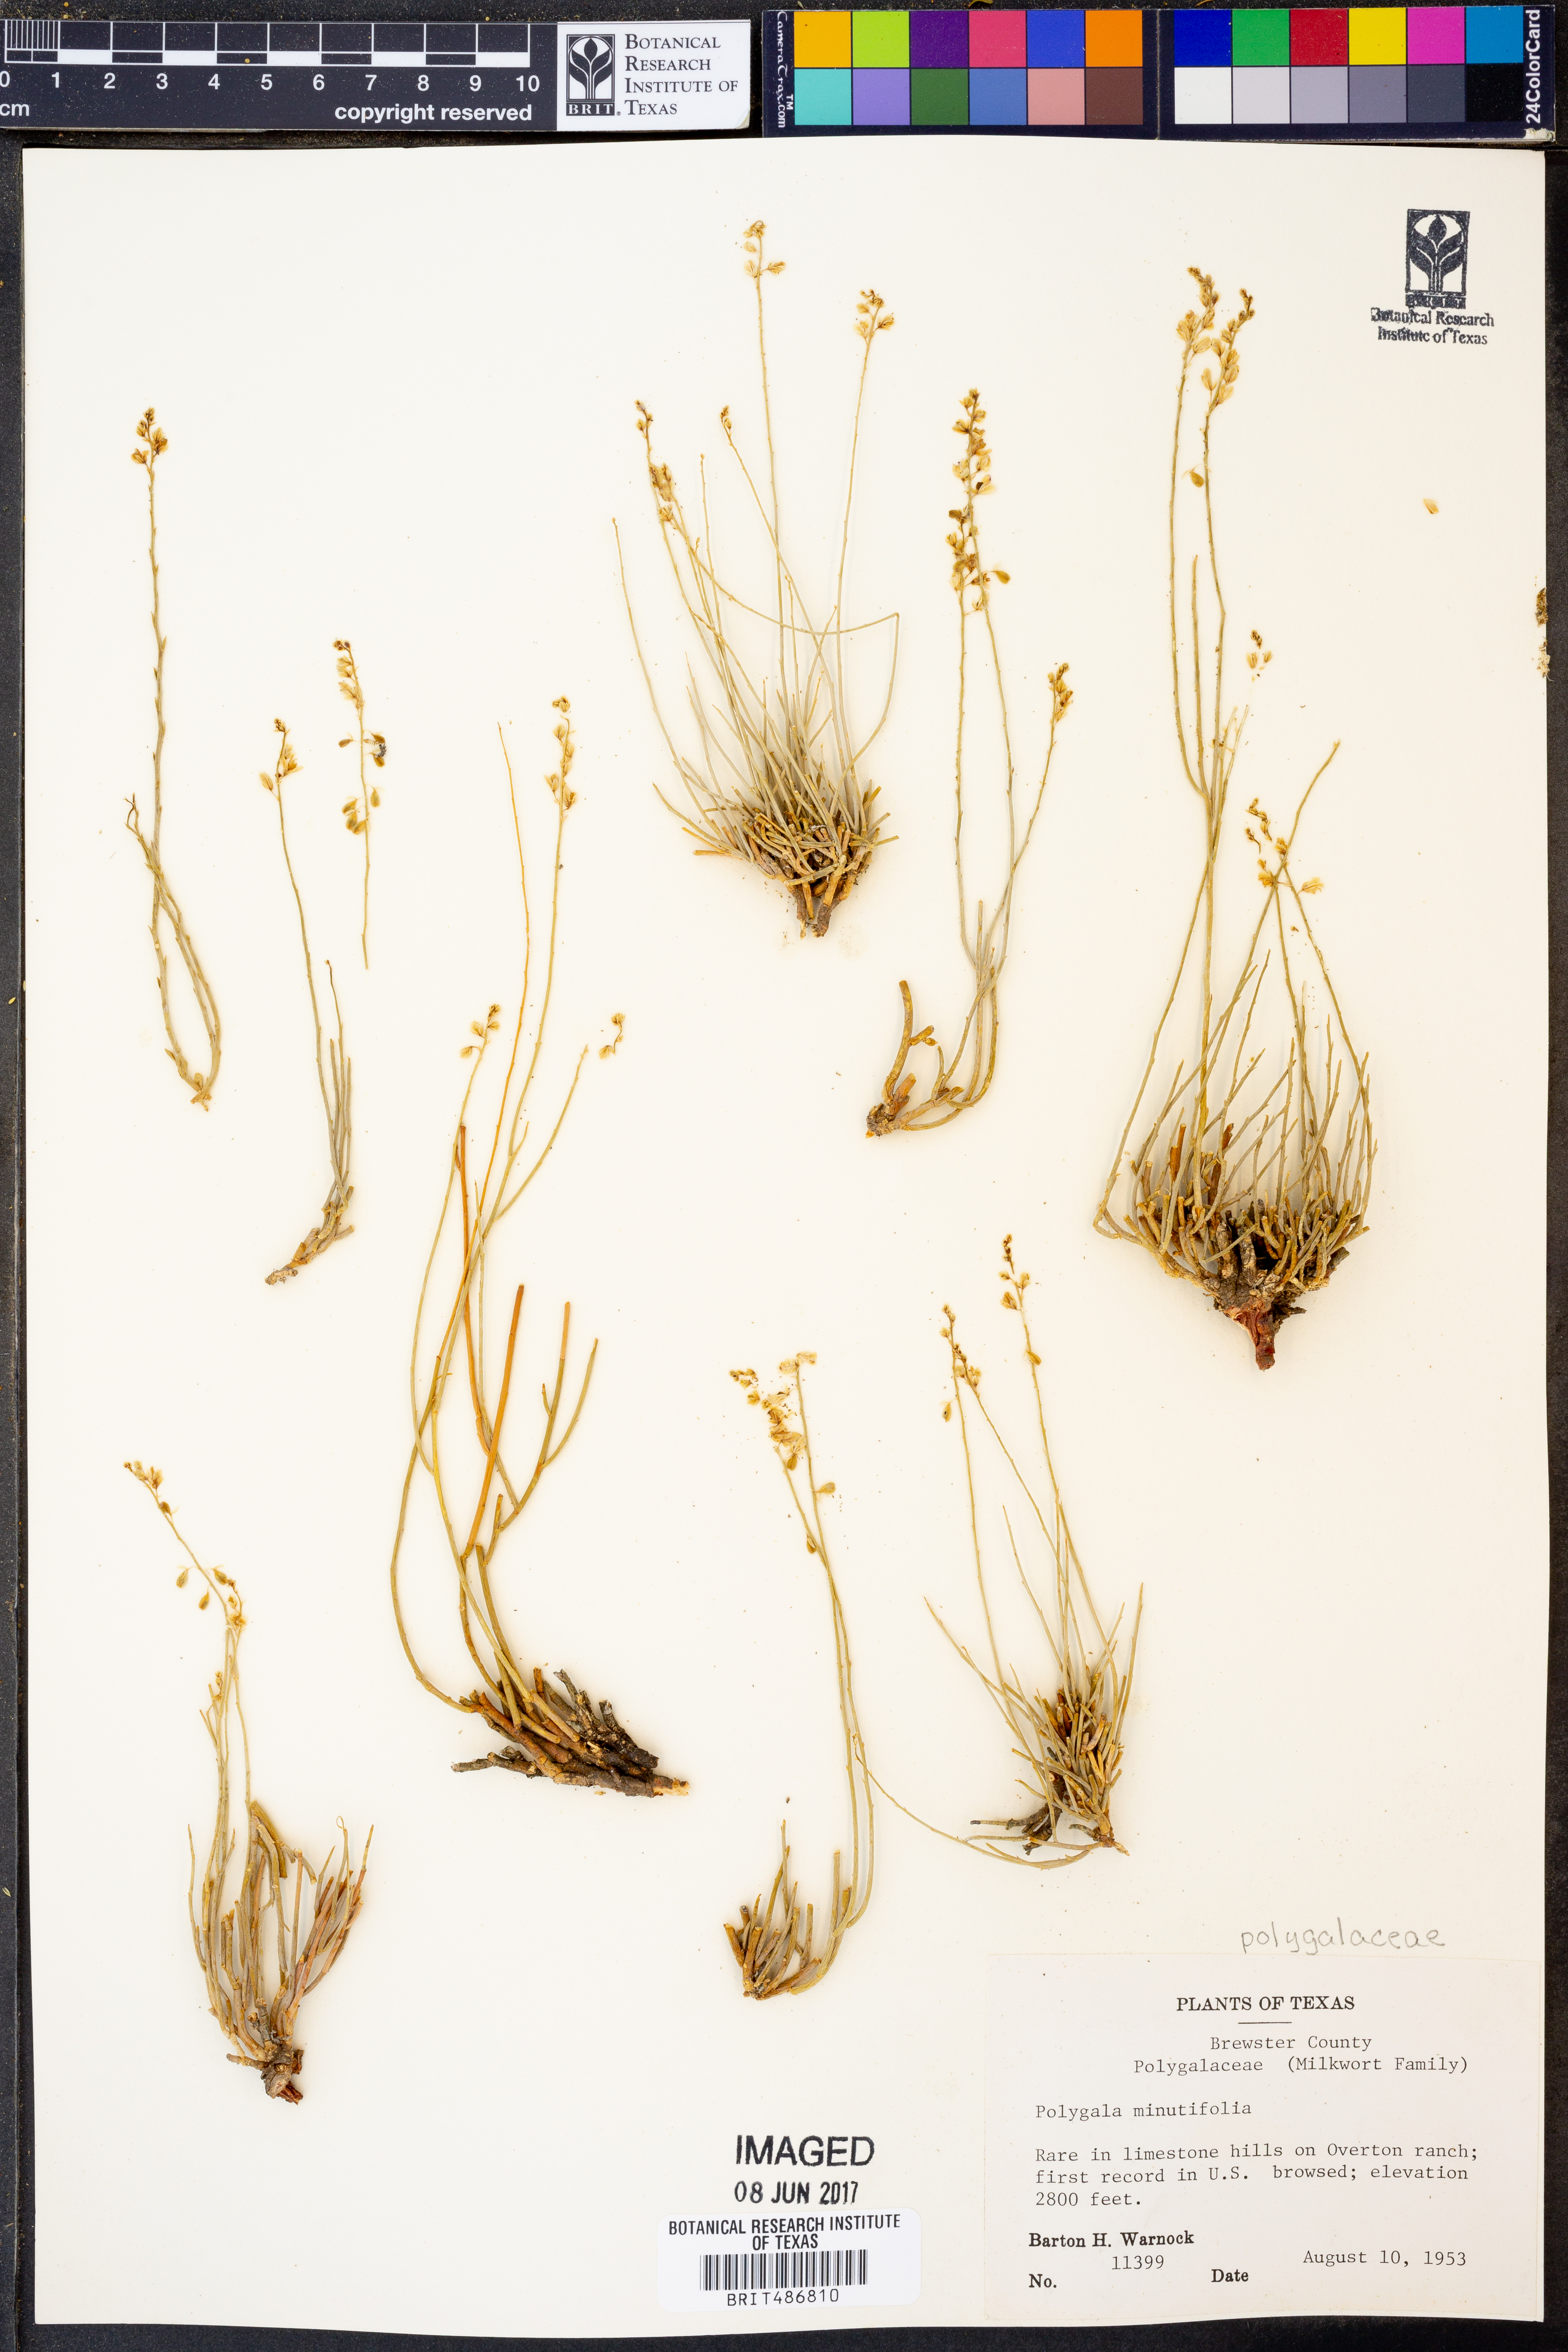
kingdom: Plantae
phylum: Tracheophyta
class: Magnoliopsida
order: Fabales
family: Polygalaceae
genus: Rhinotropis
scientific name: Rhinotropis minutifolia
